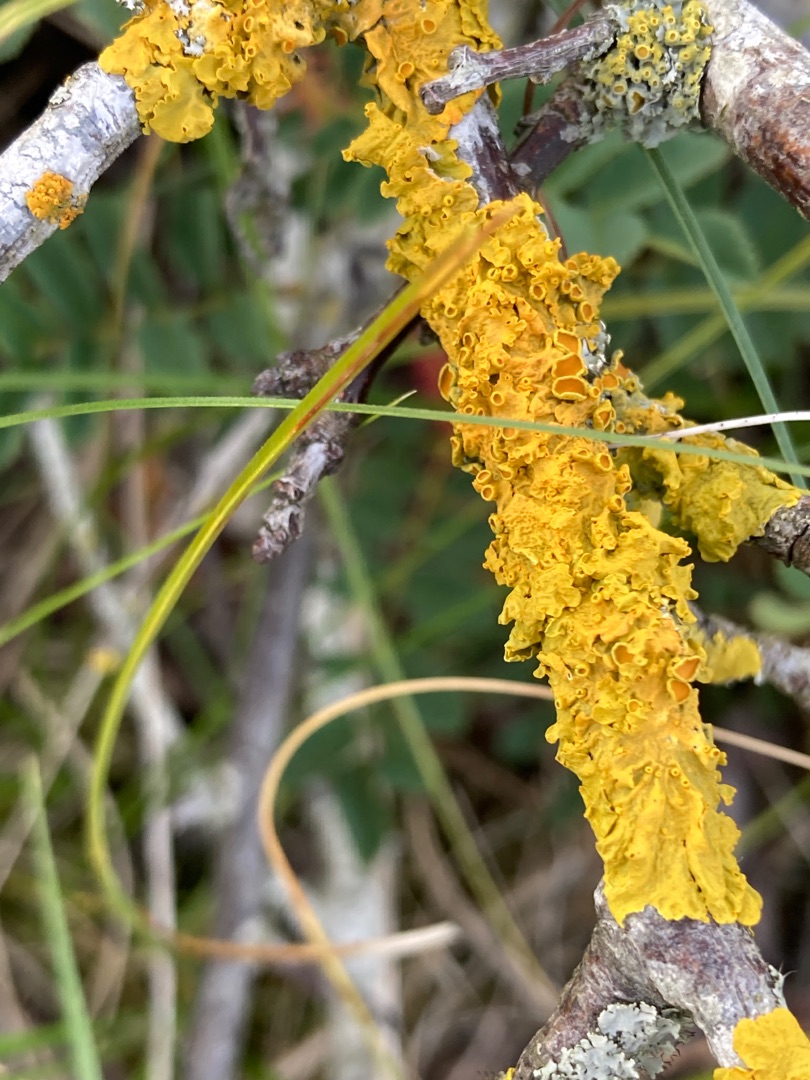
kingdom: Fungi
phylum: Ascomycota
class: Lecanoromycetes
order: Teloschistales
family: Teloschistaceae
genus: Xanthoria
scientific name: Xanthoria parietina
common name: Almindelig væggelav
